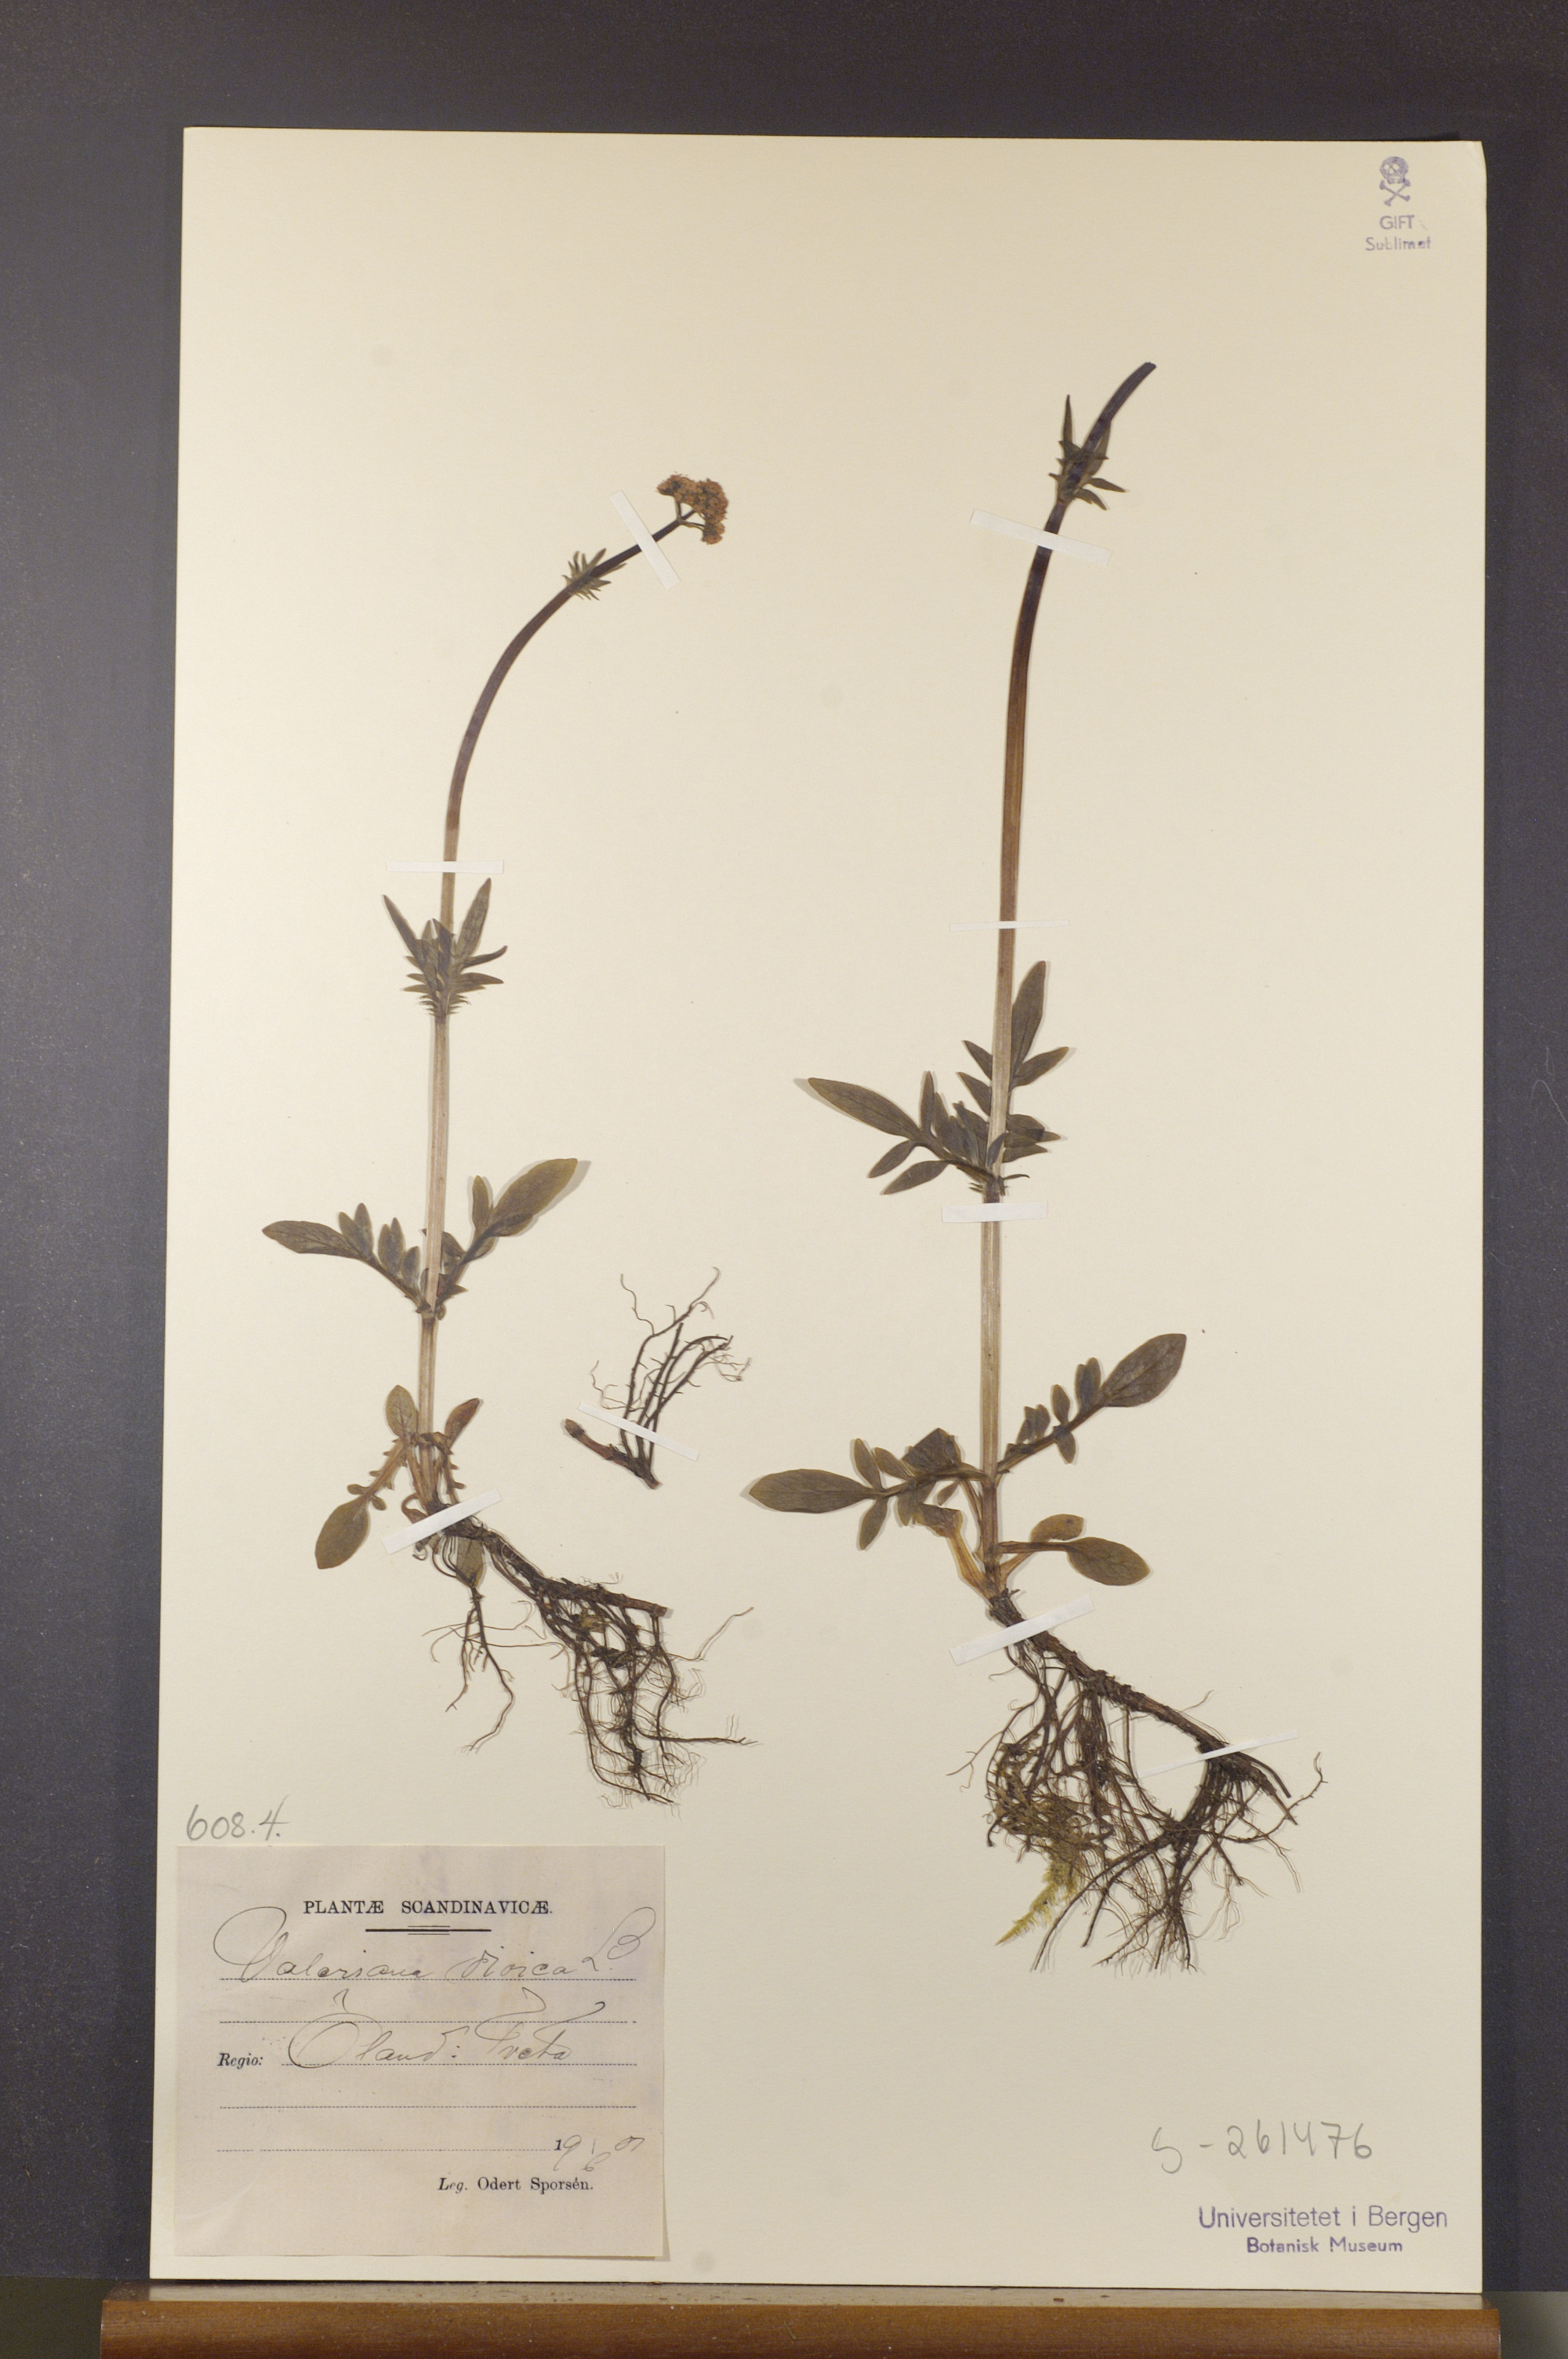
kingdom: Plantae
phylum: Tracheophyta
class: Magnoliopsida
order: Dipsacales
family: Caprifoliaceae
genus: Valeriana
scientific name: Valeriana dioica
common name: Marsh valerian
